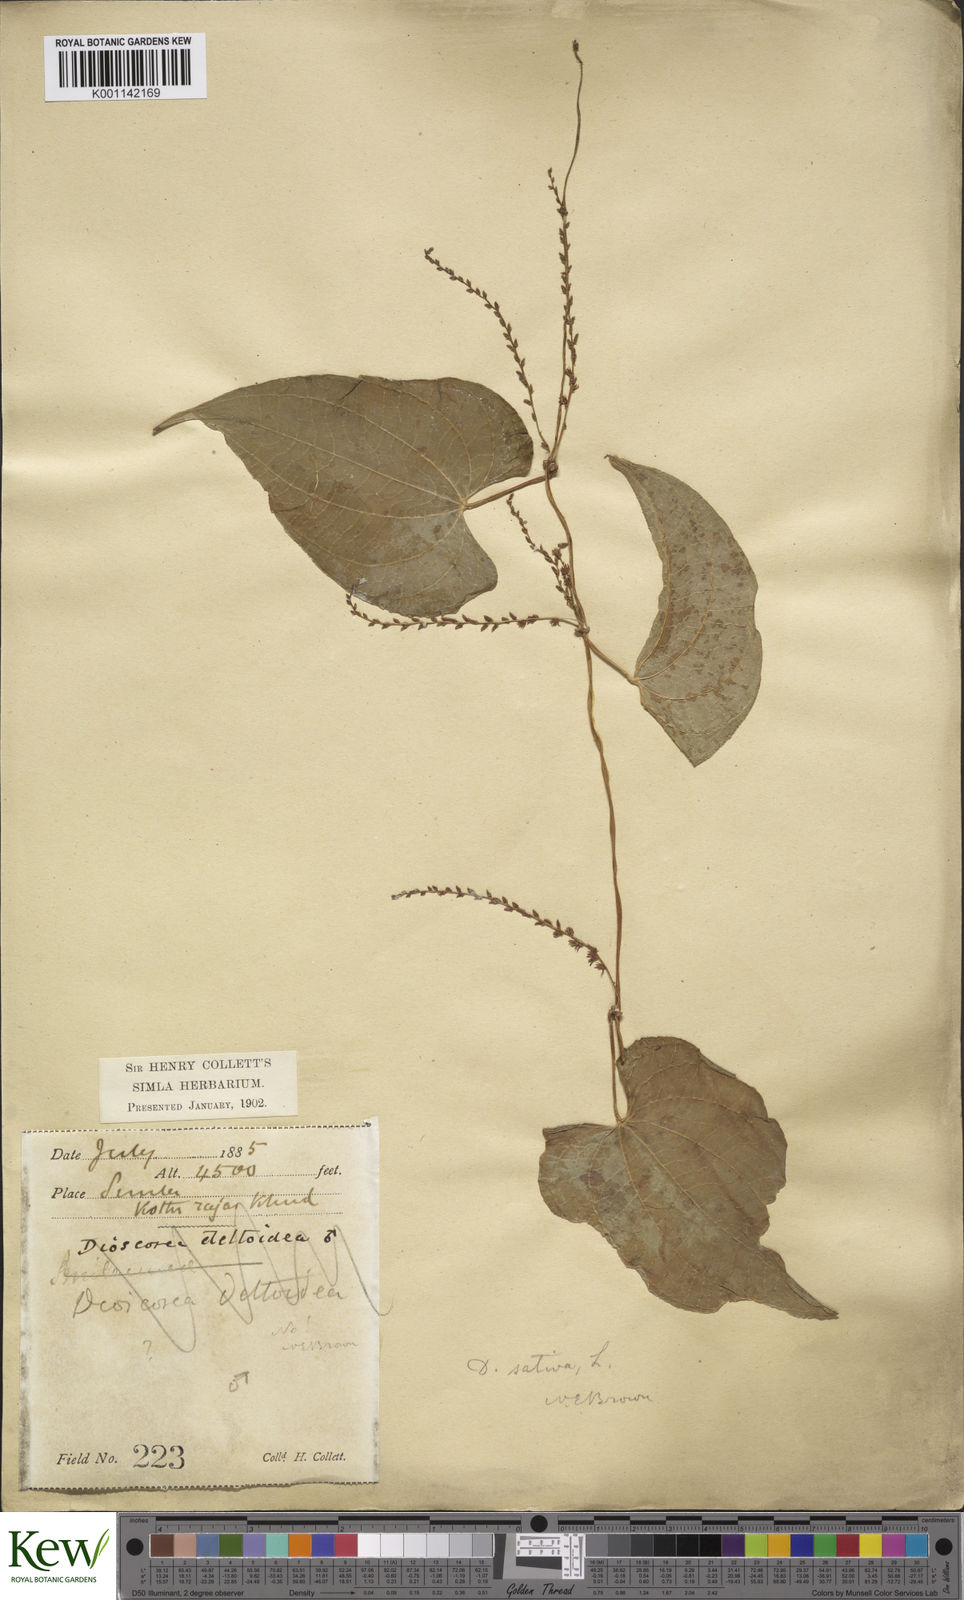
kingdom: Plantae
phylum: Tracheophyta
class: Liliopsida
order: Dioscoreales
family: Dioscoreaceae
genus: Dioscorea
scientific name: Dioscorea bulbifera
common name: Air yam
